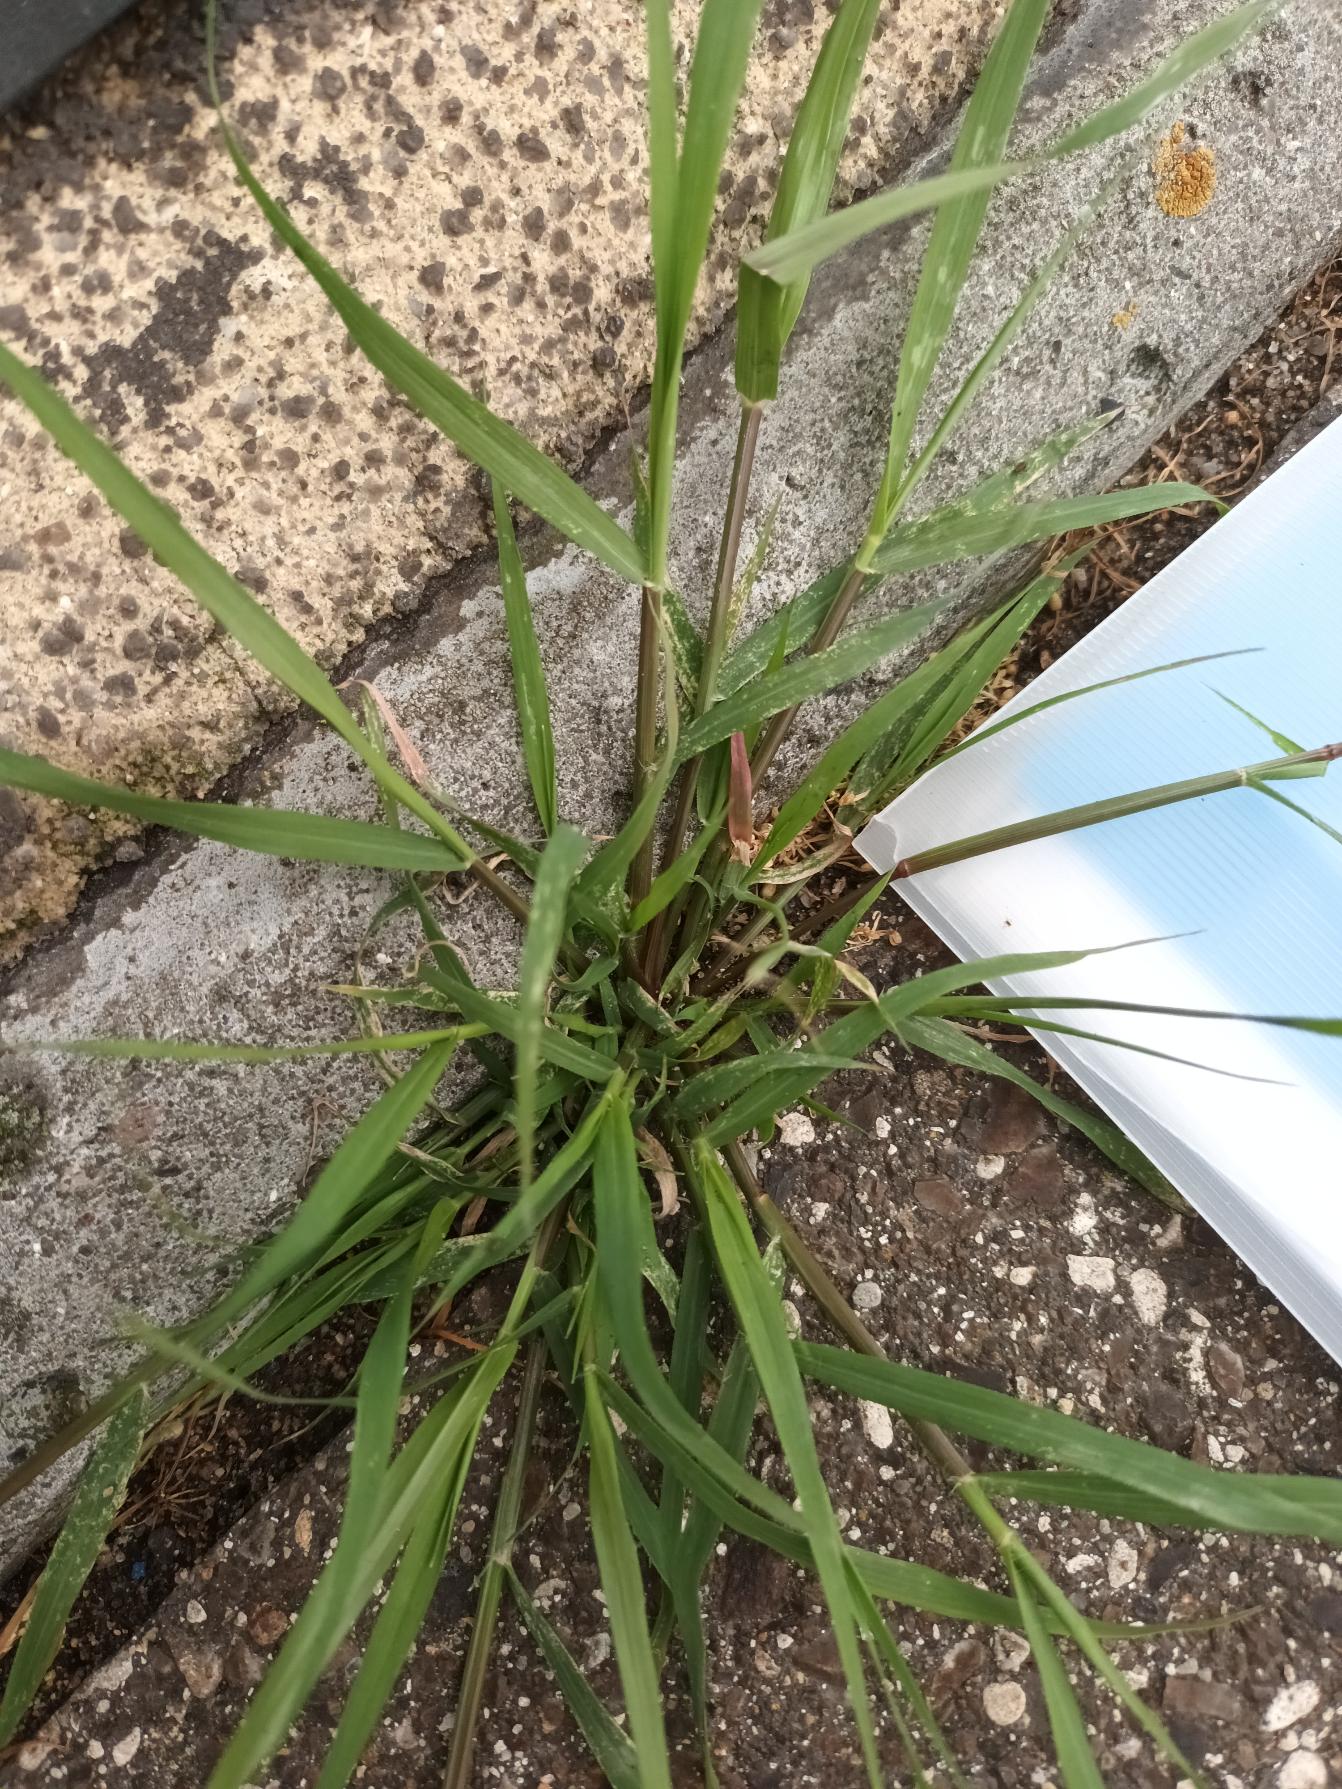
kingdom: Plantae
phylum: Tracheophyta
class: Liliopsida
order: Poales
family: Poaceae
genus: Eragrostis
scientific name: Eragrostis minor
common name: Liden kærlighedsgræs
